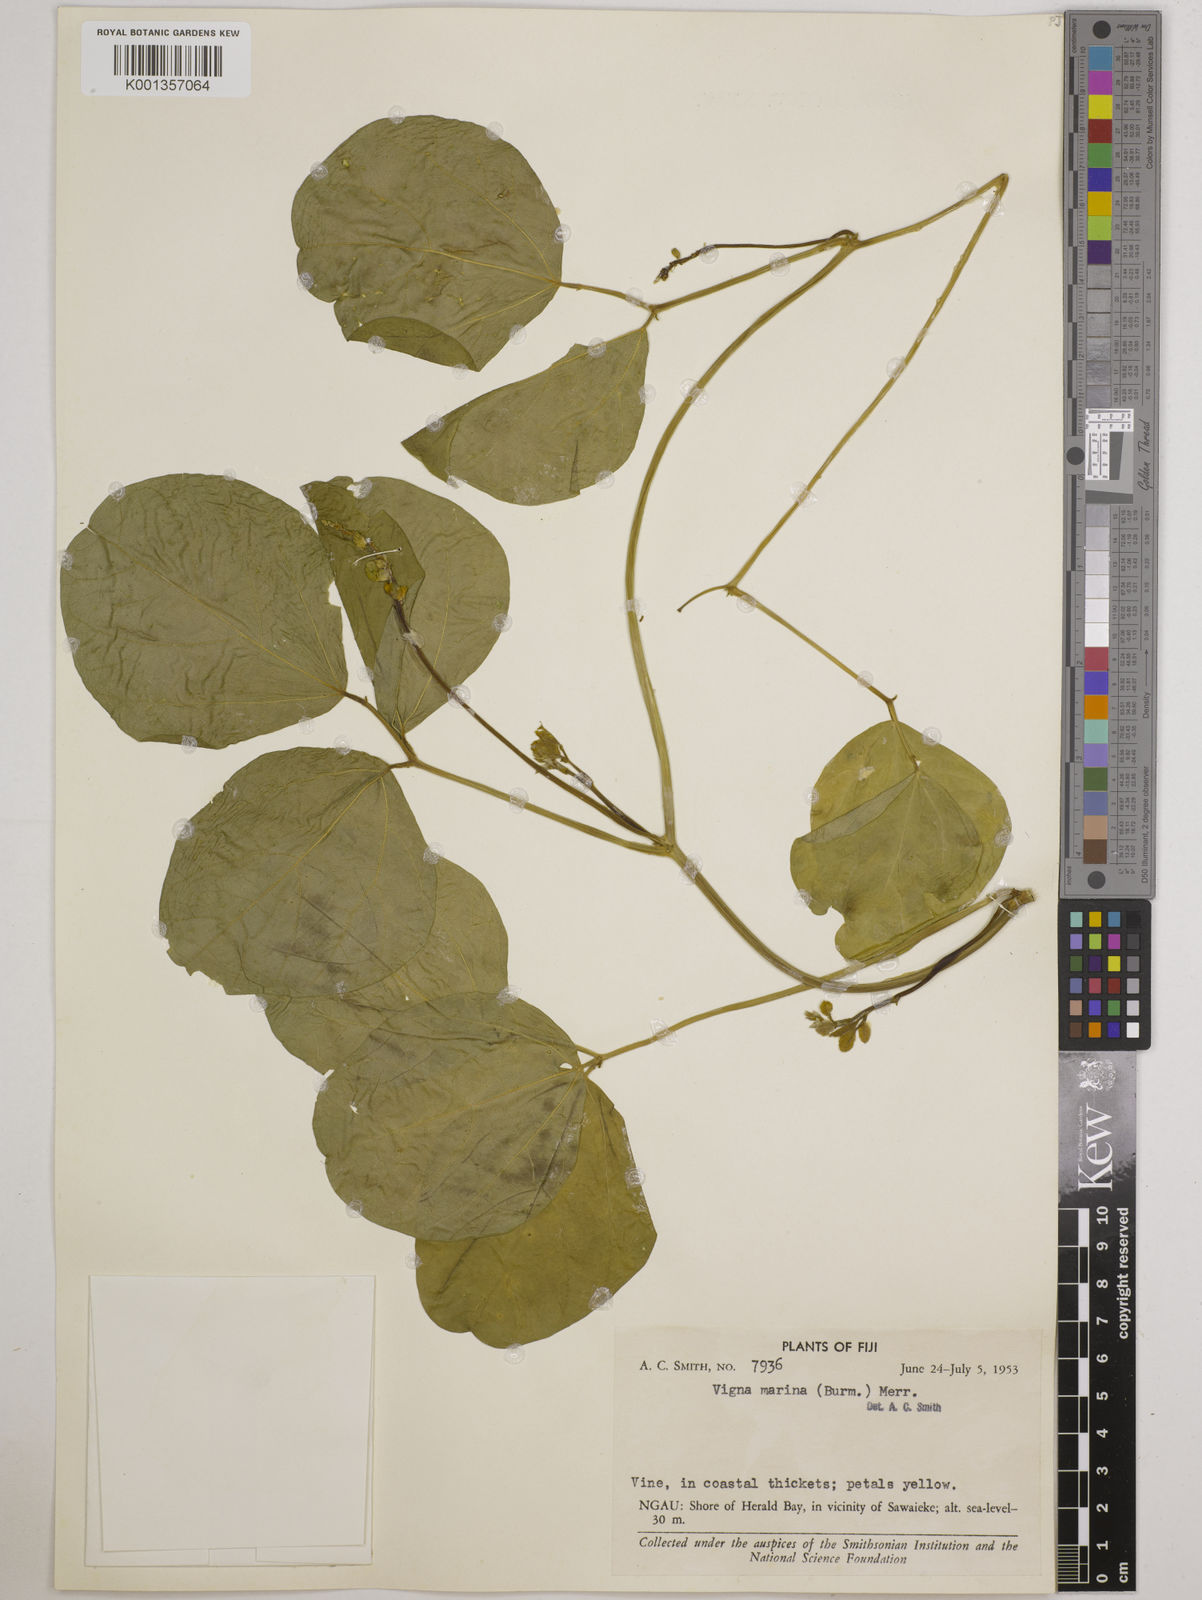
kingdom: Plantae
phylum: Tracheophyta
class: Magnoliopsida
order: Fabales
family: Fabaceae
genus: Vigna
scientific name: Vigna marina
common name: Dune-bean
